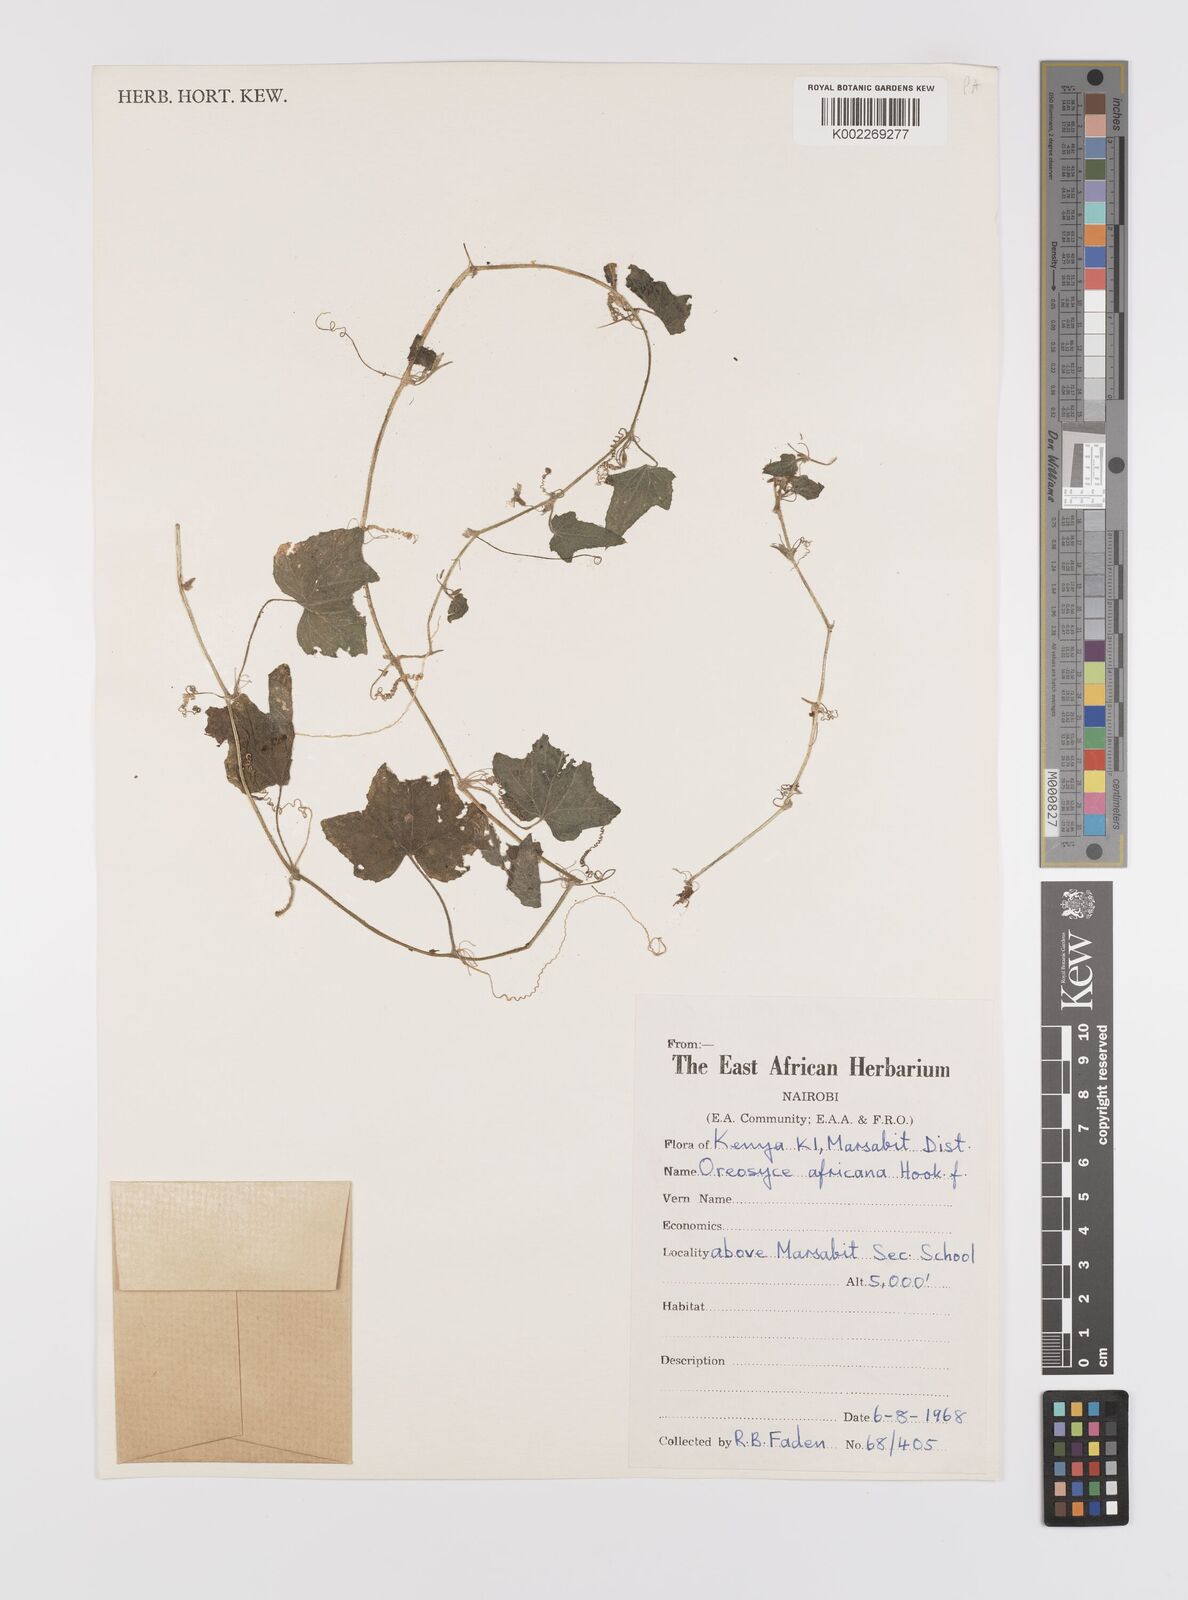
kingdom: Plantae
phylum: Tracheophyta
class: Magnoliopsida
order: Cucurbitales
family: Cucurbitaceae
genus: Cucumis
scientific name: Cucumis oreosyce
